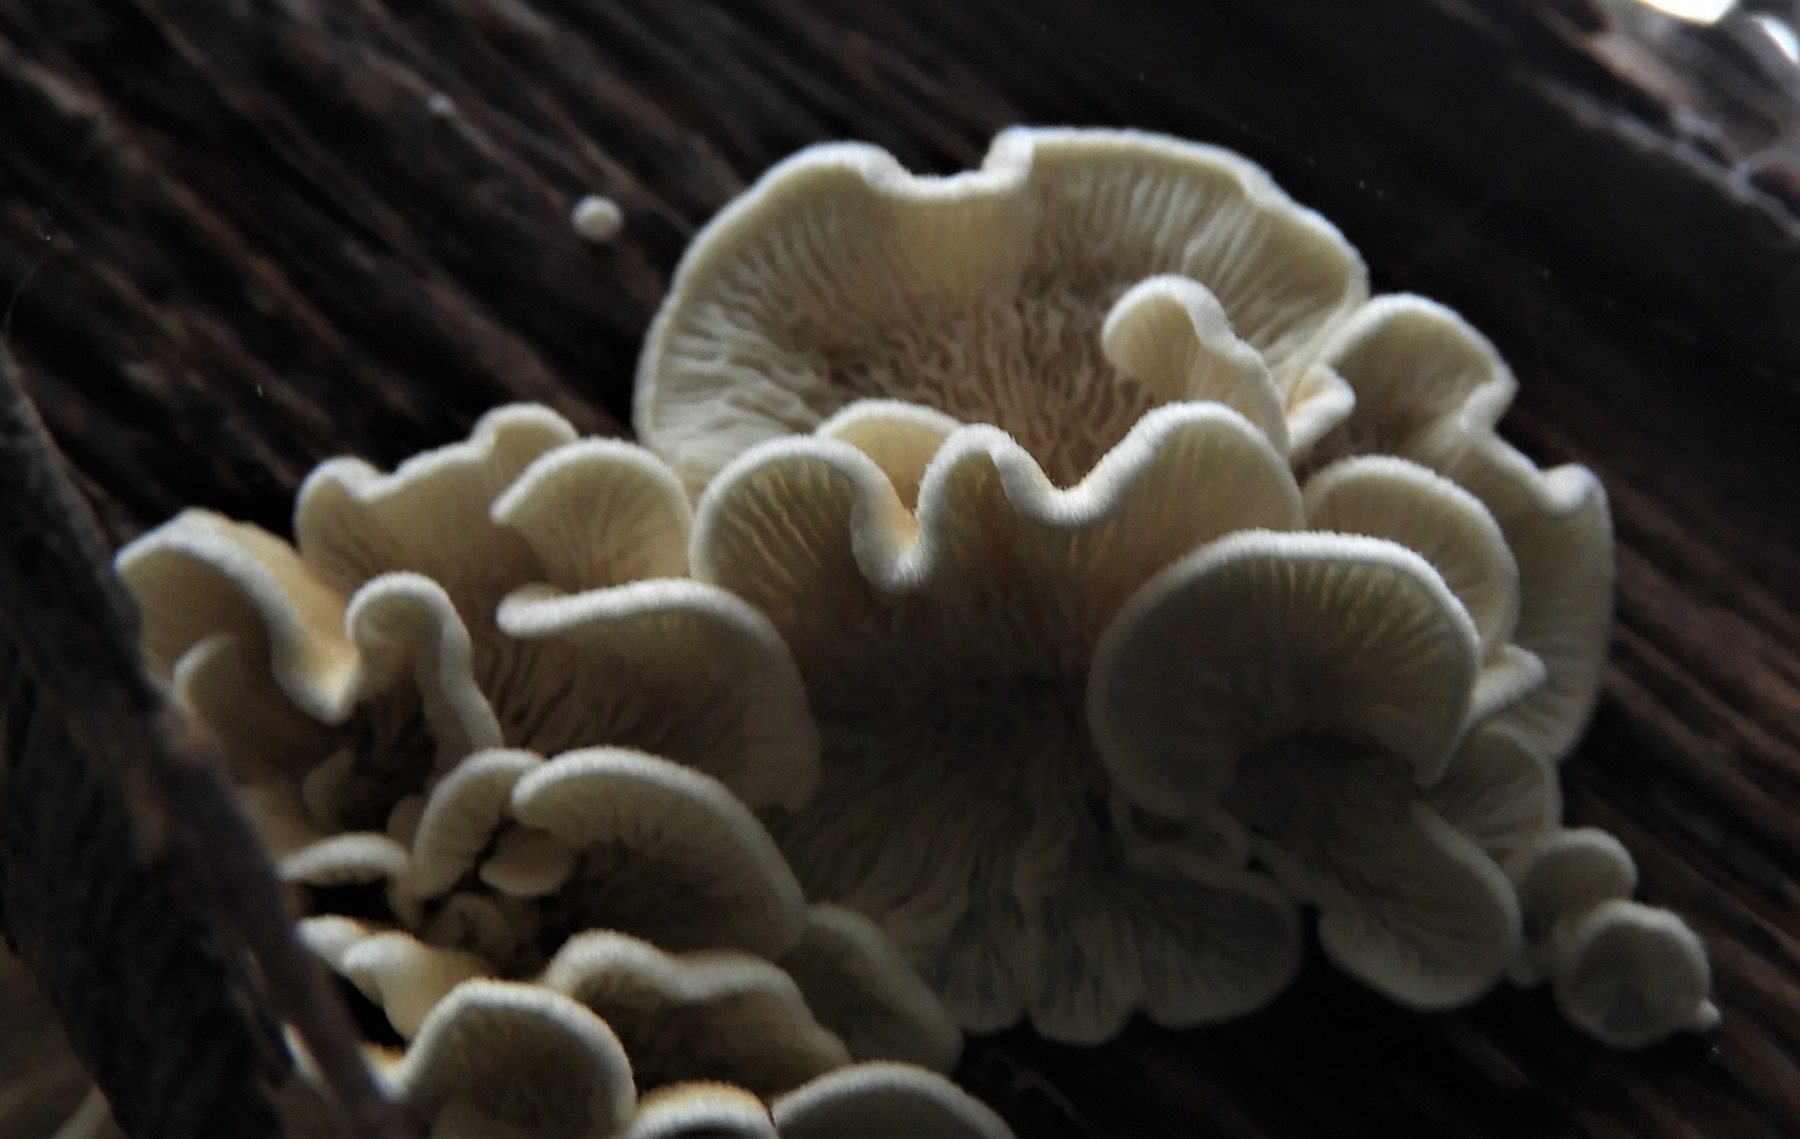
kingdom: Fungi
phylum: Basidiomycota
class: Agaricomycetes
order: Amylocorticiales
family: Amylocorticiaceae
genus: Plicaturopsis
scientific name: Plicaturopsis crispa
